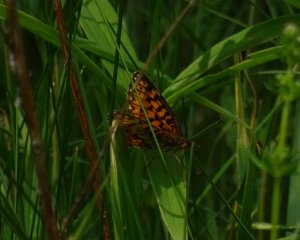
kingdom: Animalia
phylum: Arthropoda
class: Insecta
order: Lepidoptera
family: Nymphalidae
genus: Boloria
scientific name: Boloria selene
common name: Silver-bordered Fritillary
